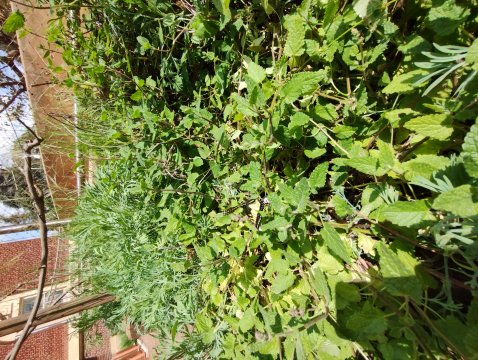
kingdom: Animalia
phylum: Arthropoda
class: Insecta
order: Lepidoptera
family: Papilionidae
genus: Papilio
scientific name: Papilio zelicaon
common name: Anise Swallowtail
